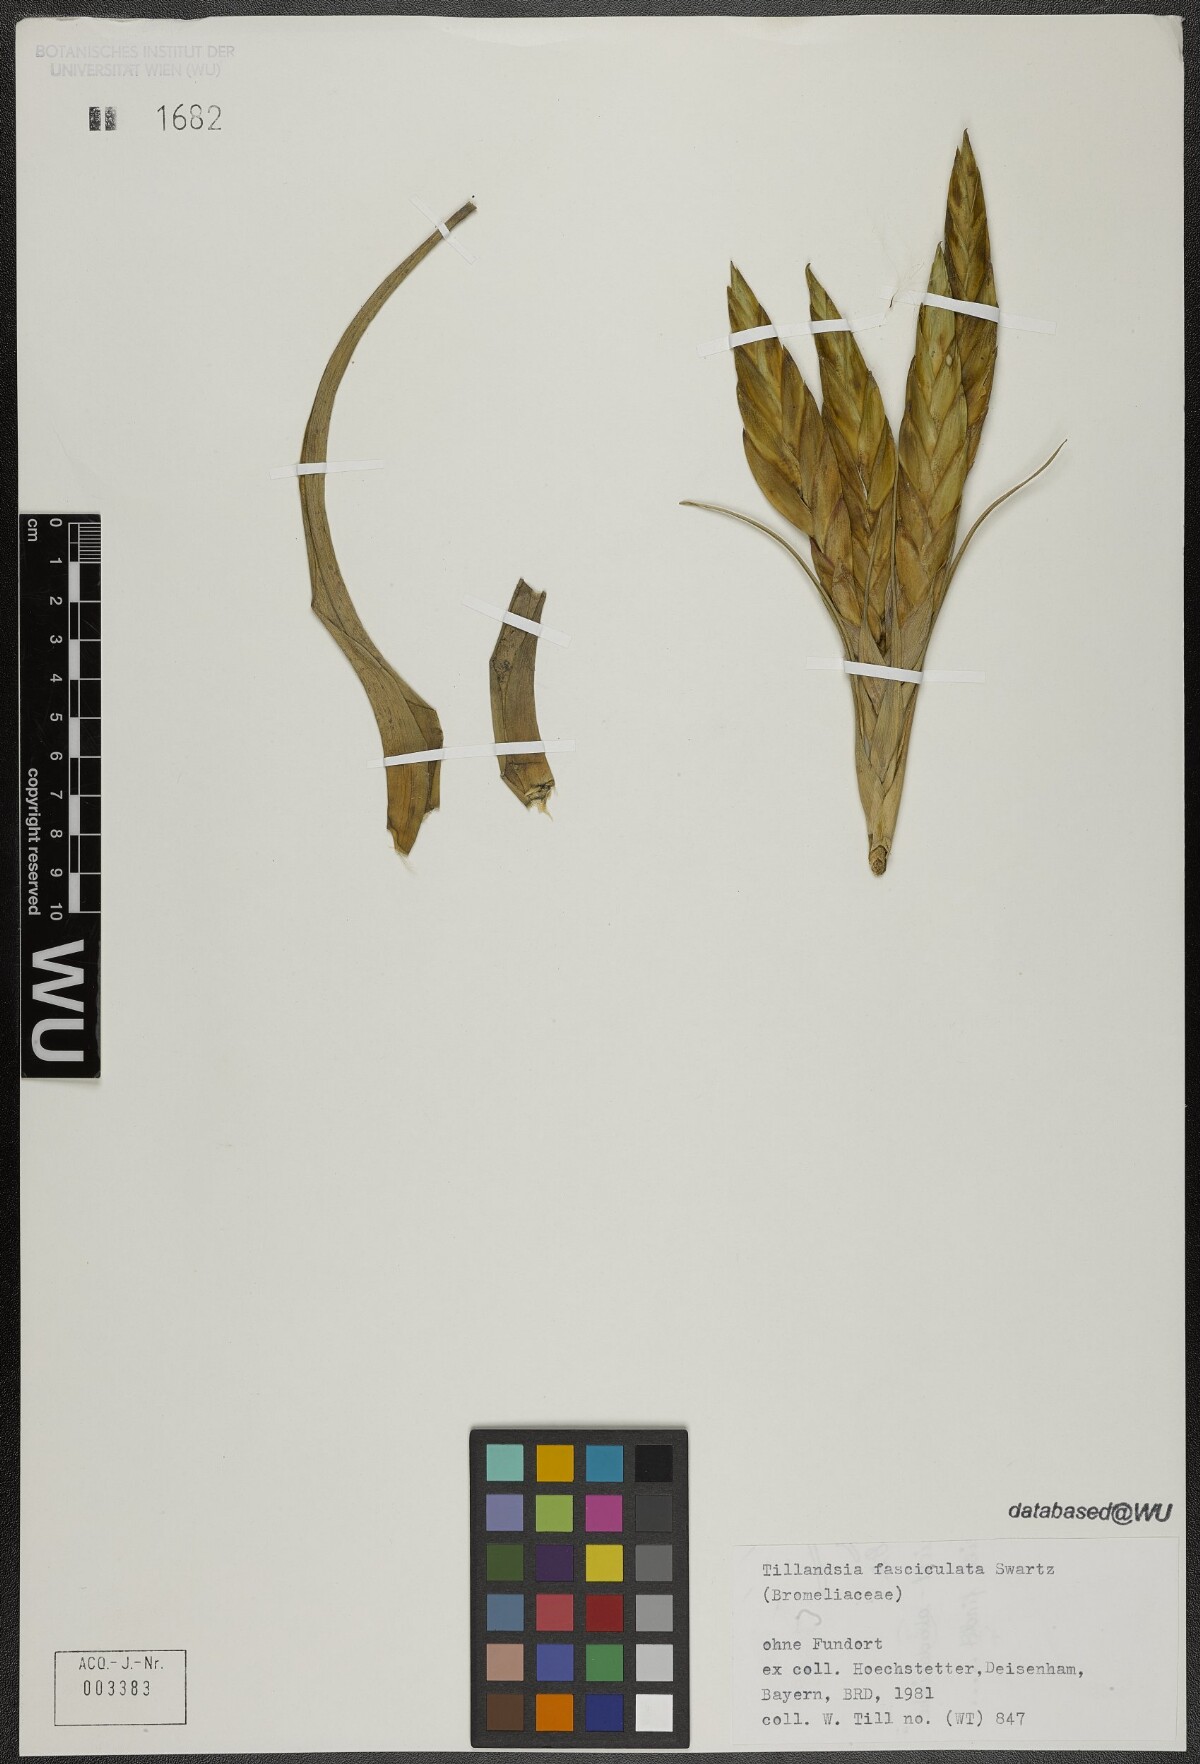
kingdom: Plantae
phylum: Tracheophyta
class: Liliopsida
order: Poales
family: Bromeliaceae
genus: Tillandsia
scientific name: Tillandsia fasciculata
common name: Giant airplant
